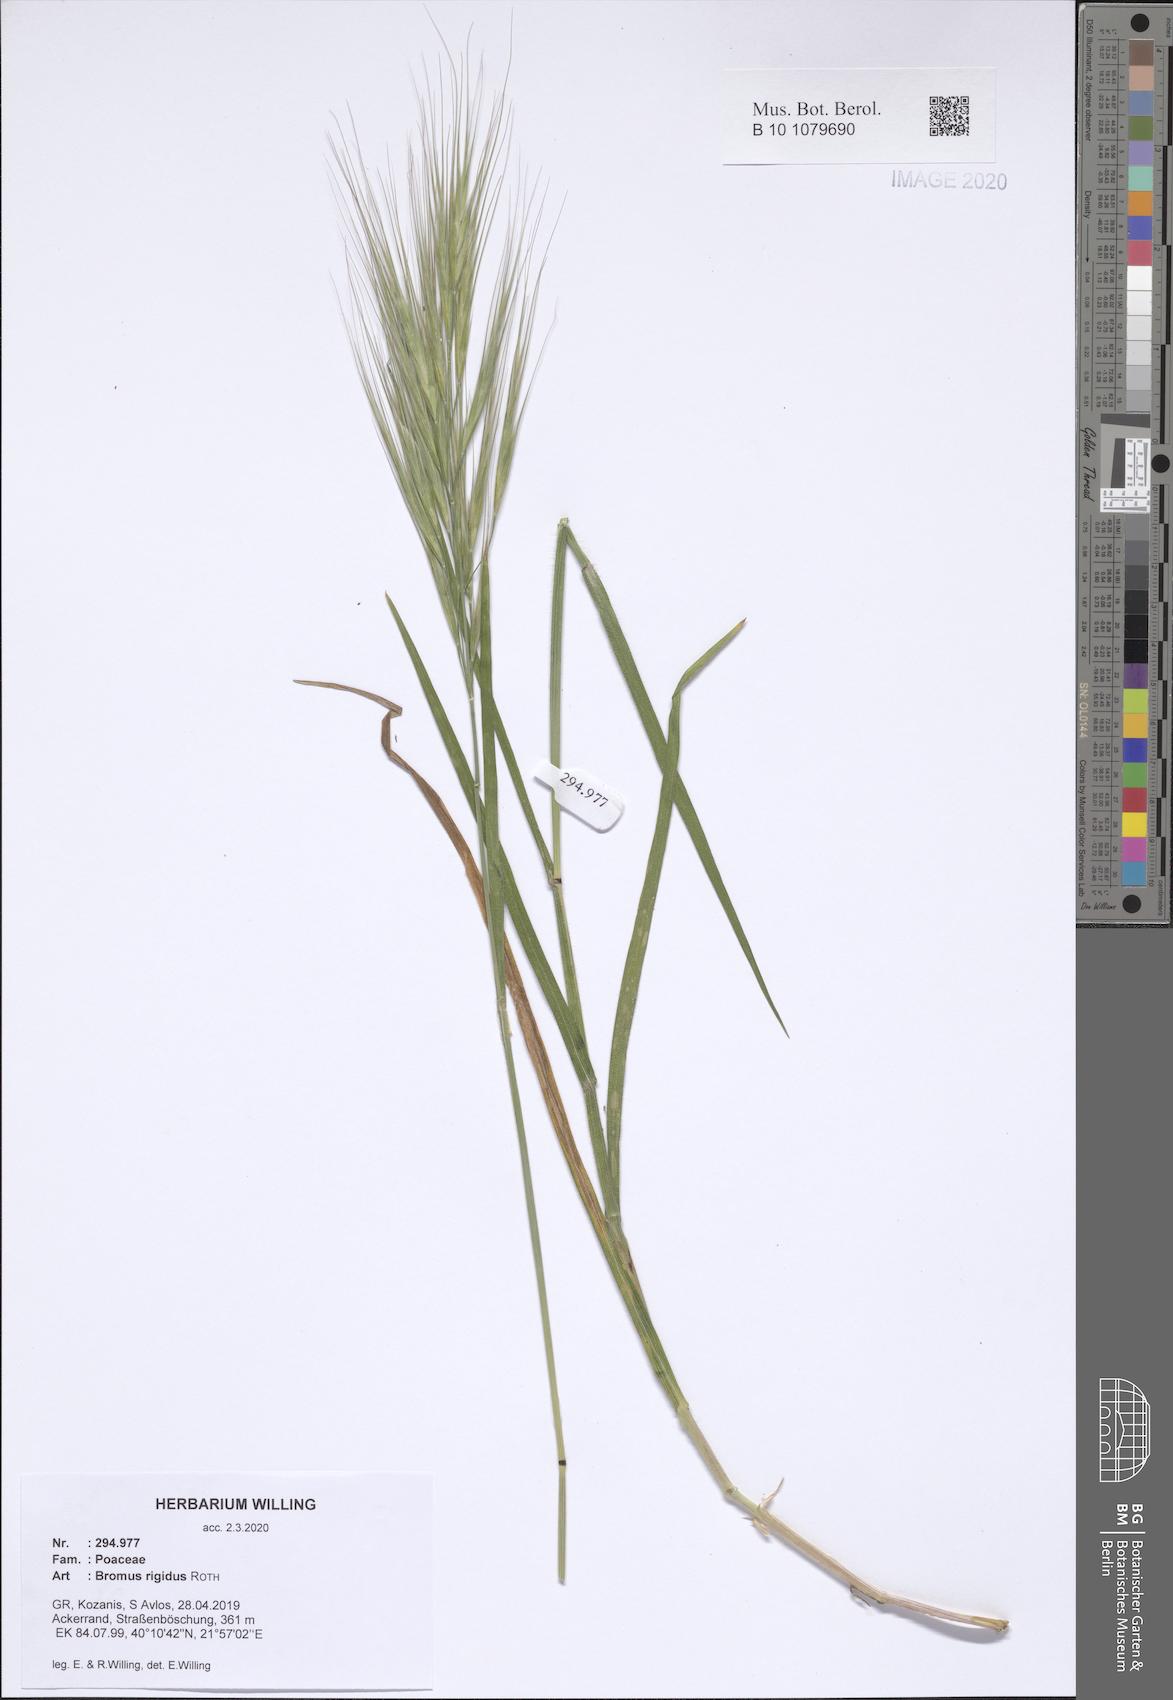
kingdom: Plantae
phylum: Tracheophyta
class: Liliopsida
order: Poales
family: Poaceae
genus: Bromus
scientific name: Bromus rigidus
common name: Ripgut brome
